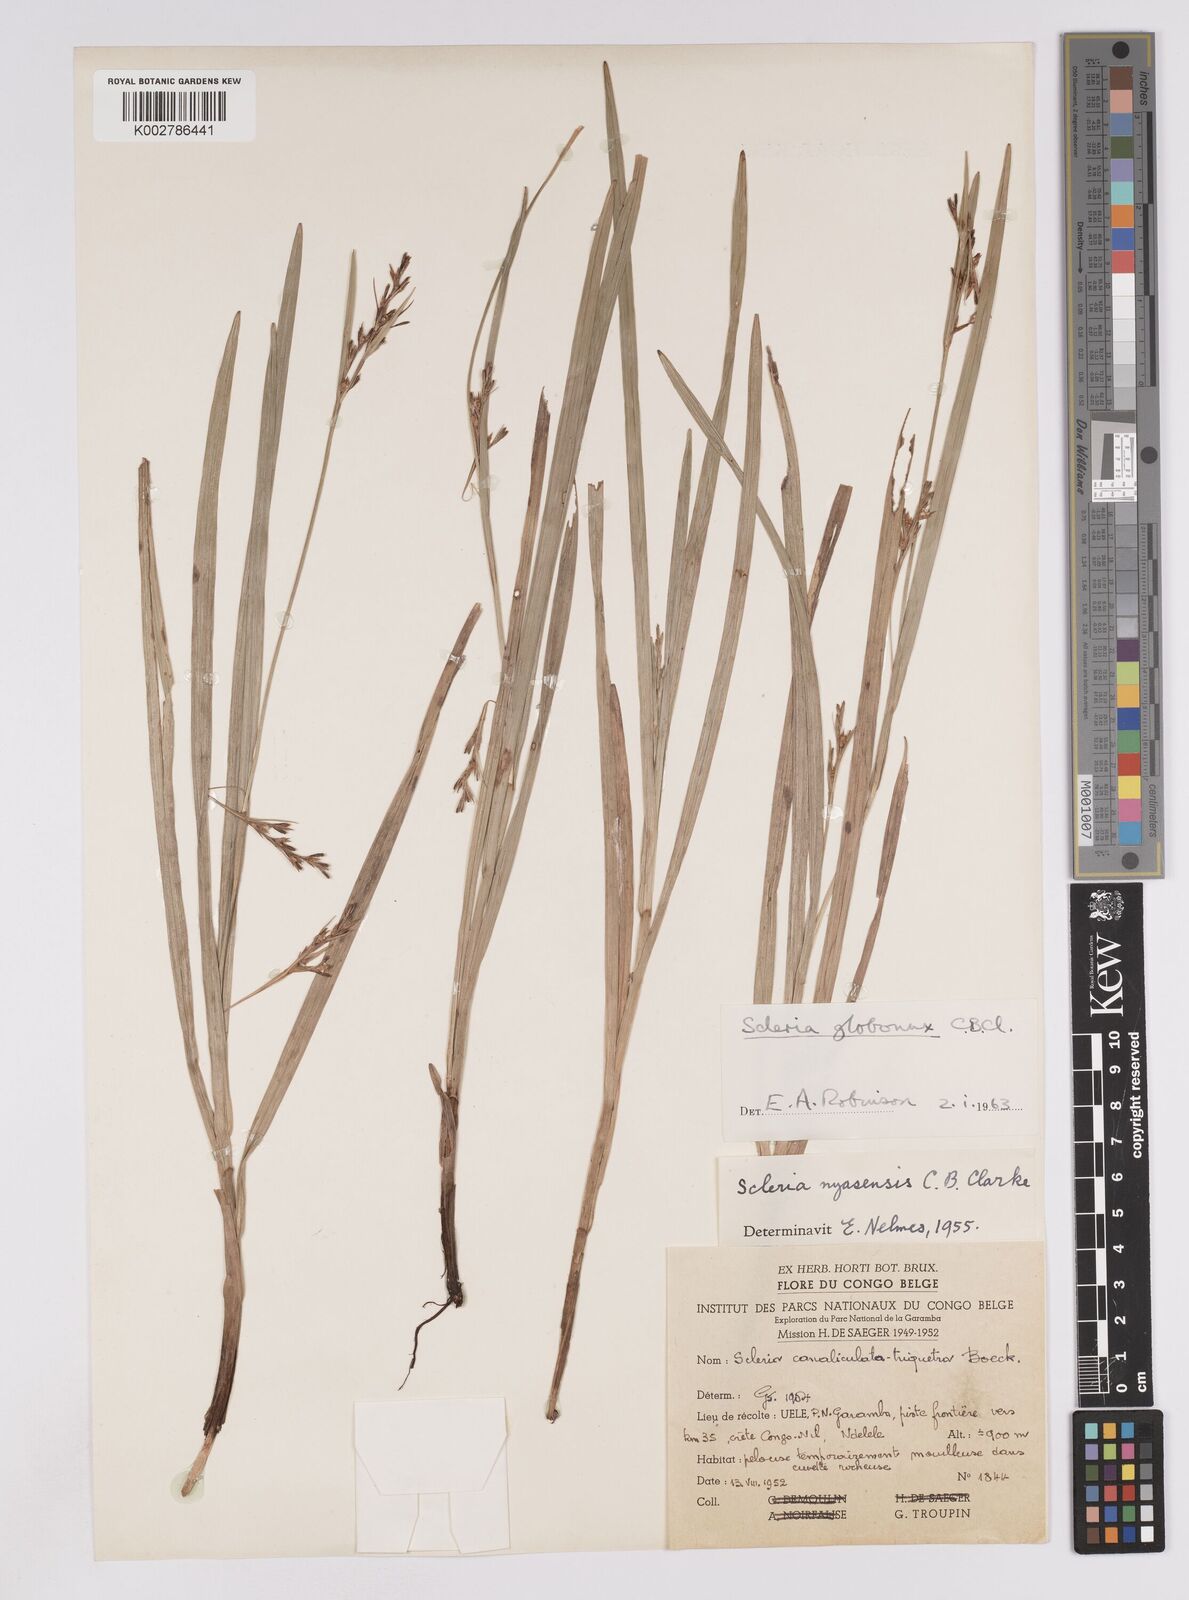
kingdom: Plantae
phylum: Tracheophyta
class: Liliopsida
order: Poales
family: Cyperaceae
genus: Scleria
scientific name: Scleria globonux
